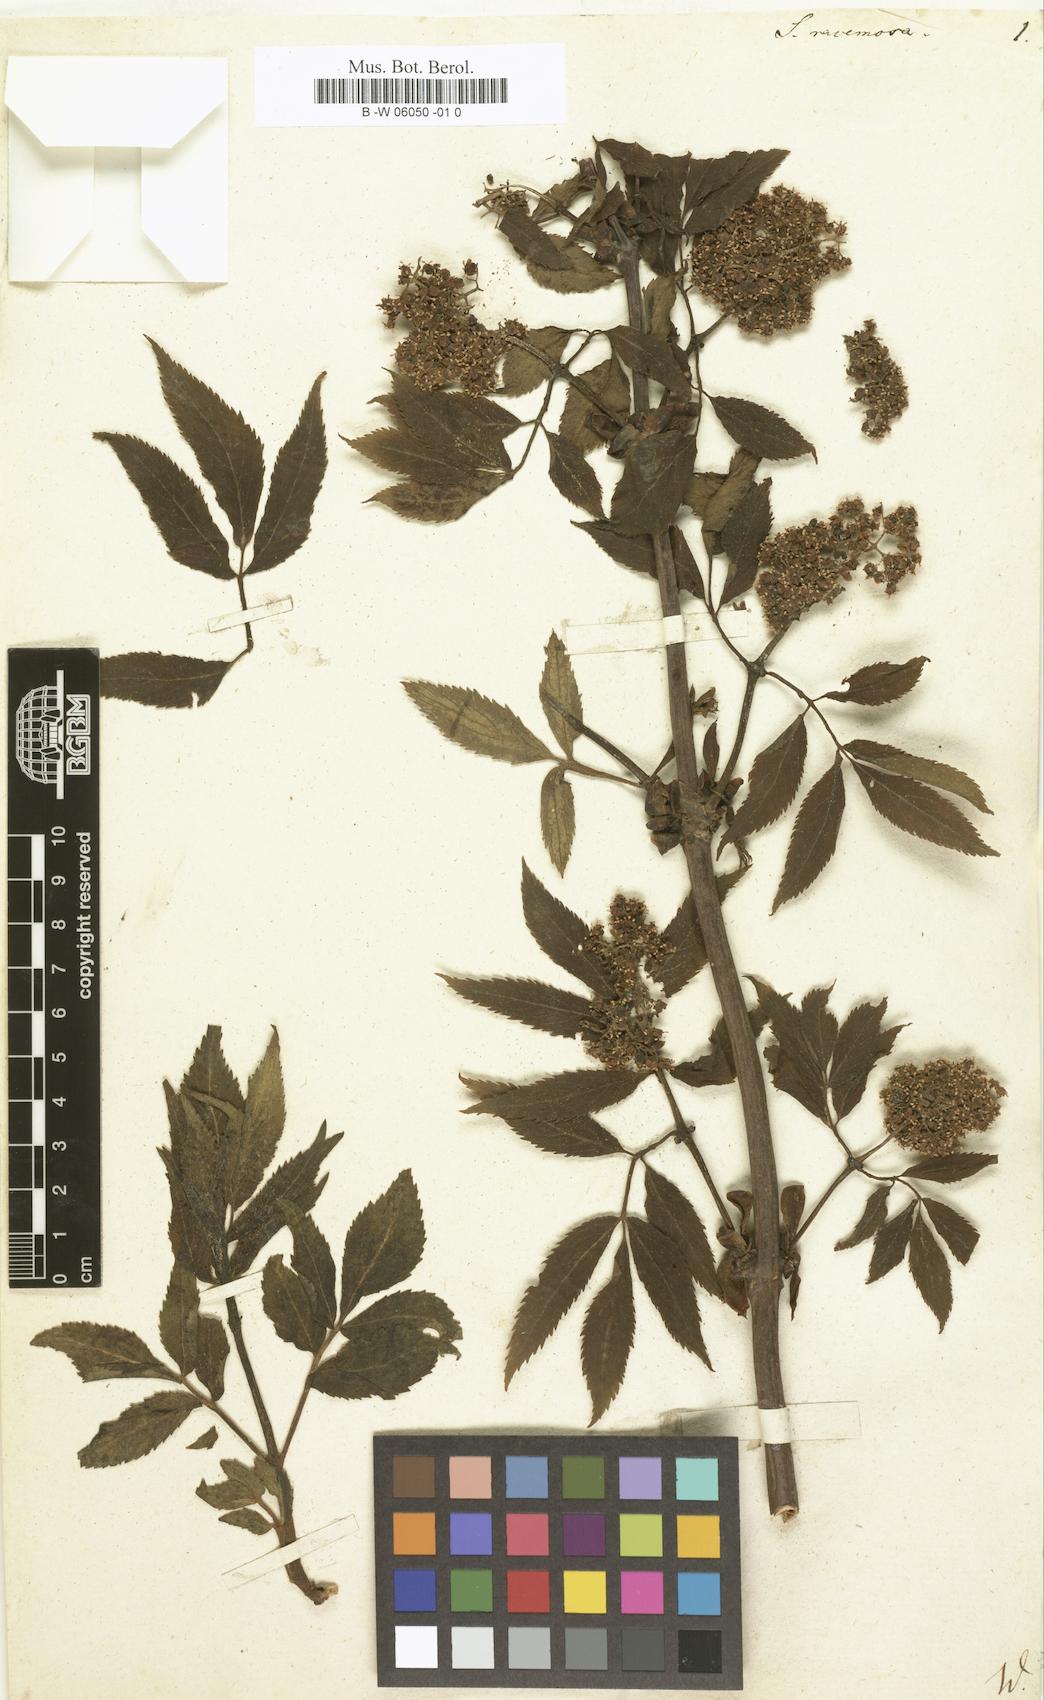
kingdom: Plantae
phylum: Tracheophyta
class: Magnoliopsida
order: Dipsacales
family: Viburnaceae
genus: Sambucus
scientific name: Sambucus racemosa
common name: Red-berried elder
